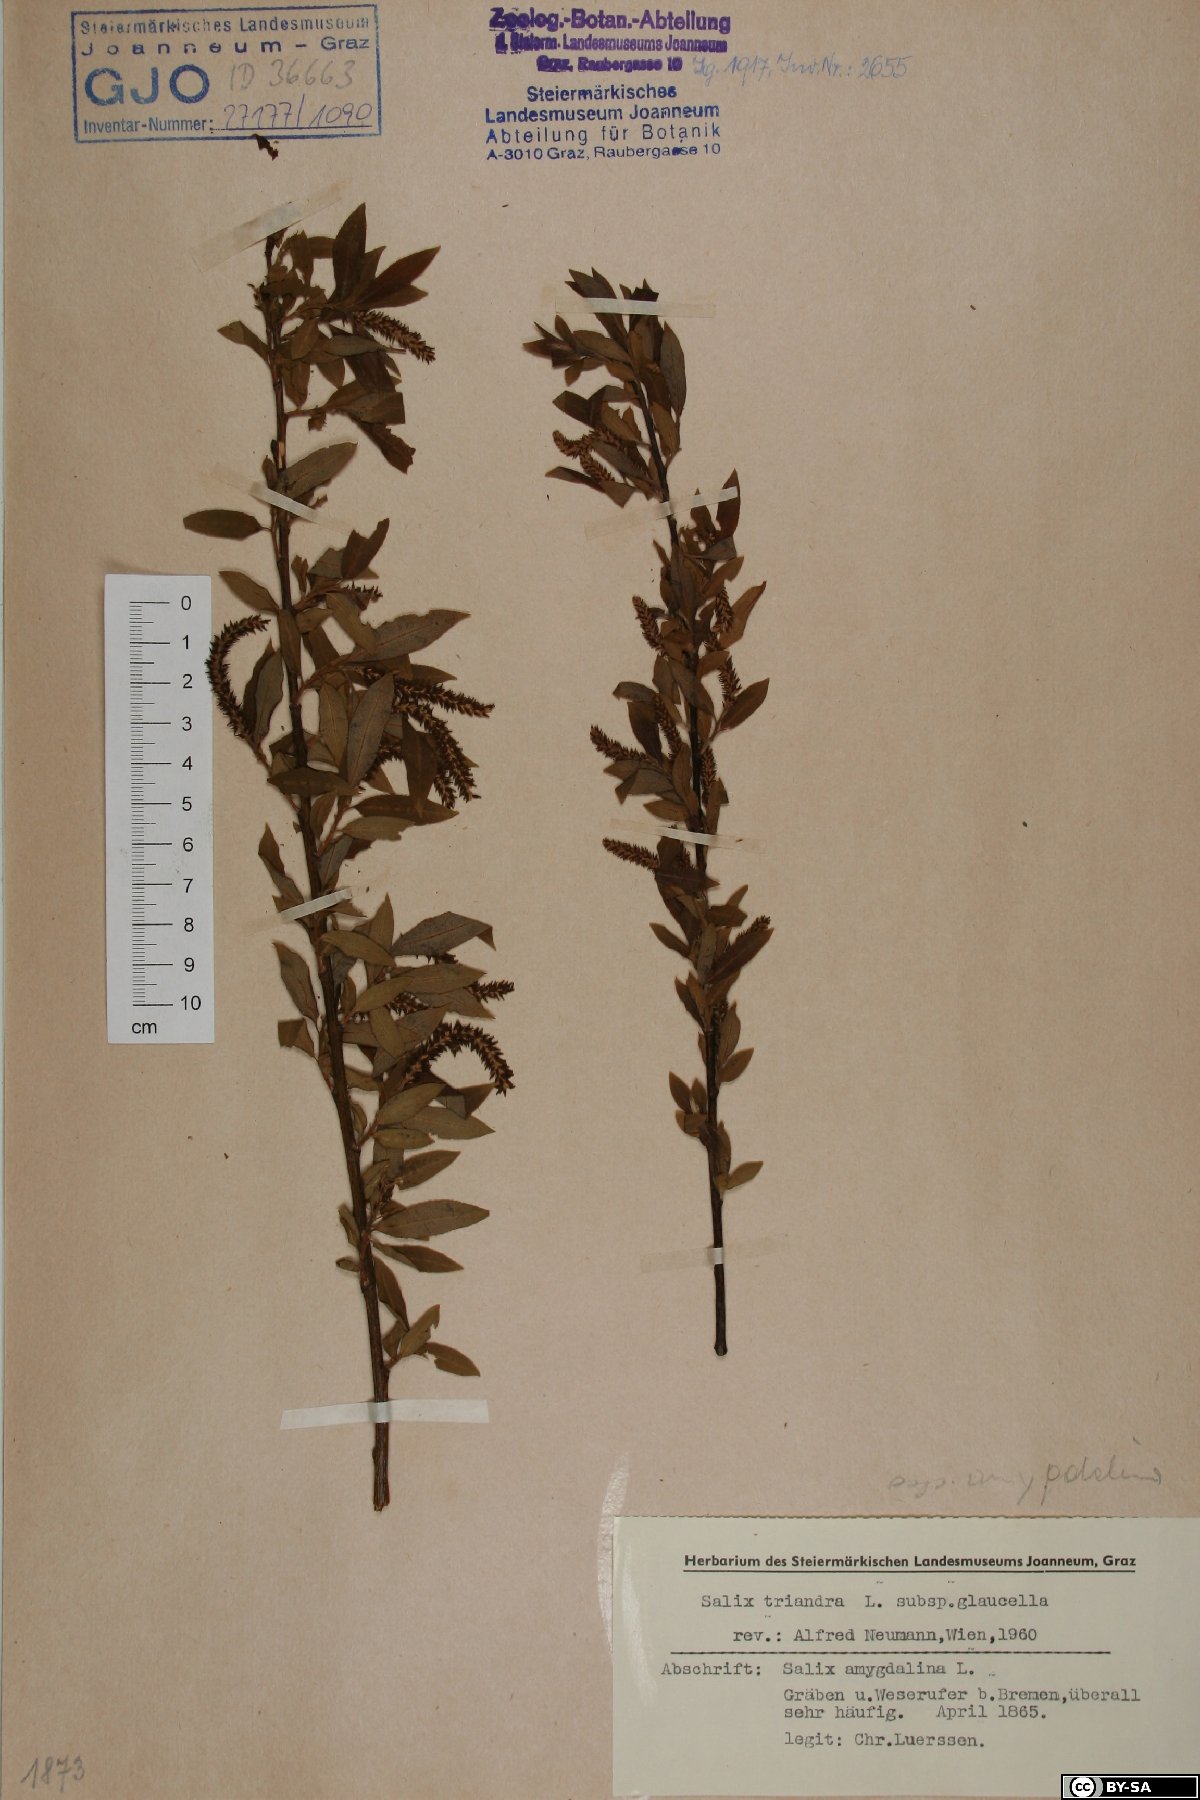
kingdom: Plantae
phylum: Tracheophyta
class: Magnoliopsida
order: Malpighiales
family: Salicaceae
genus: Salix
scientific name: Salix triandra
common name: Almond willow
